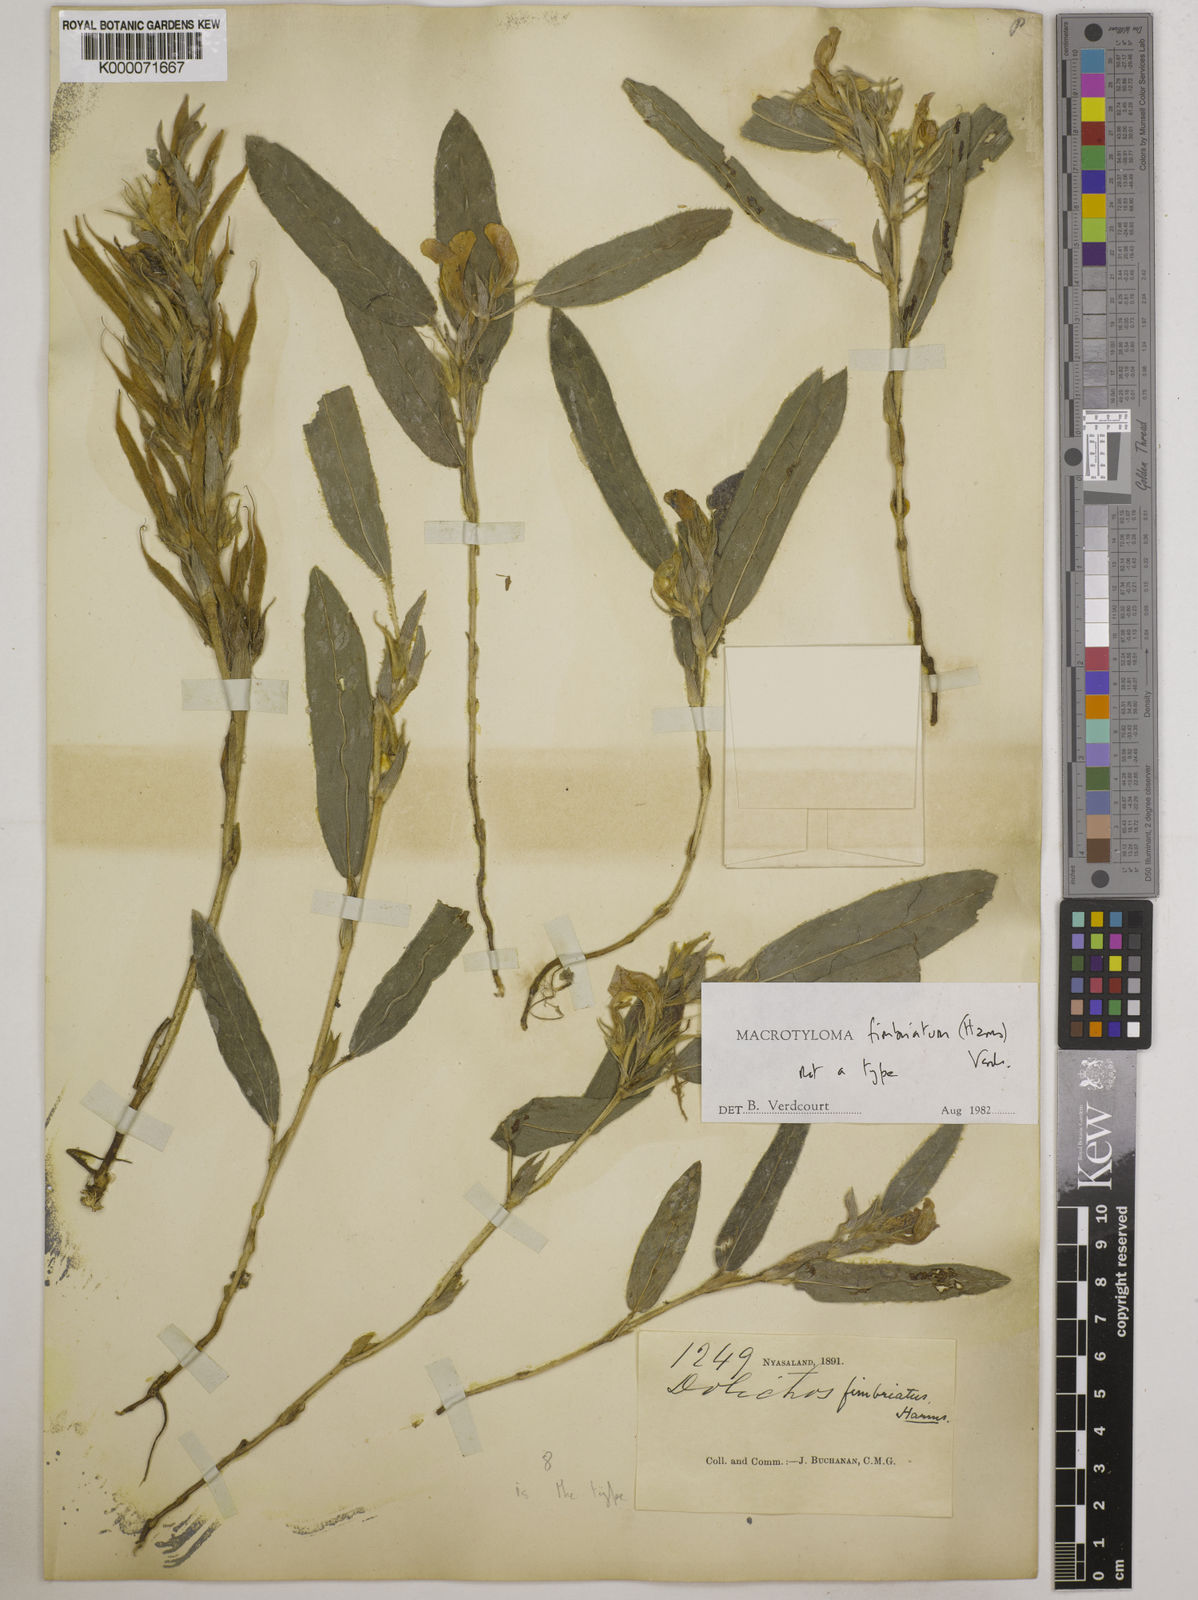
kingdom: Plantae
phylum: Tracheophyta
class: Magnoliopsida
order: Fabales
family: Fabaceae
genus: Macrotyloma
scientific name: Macrotyloma fimbriatum
